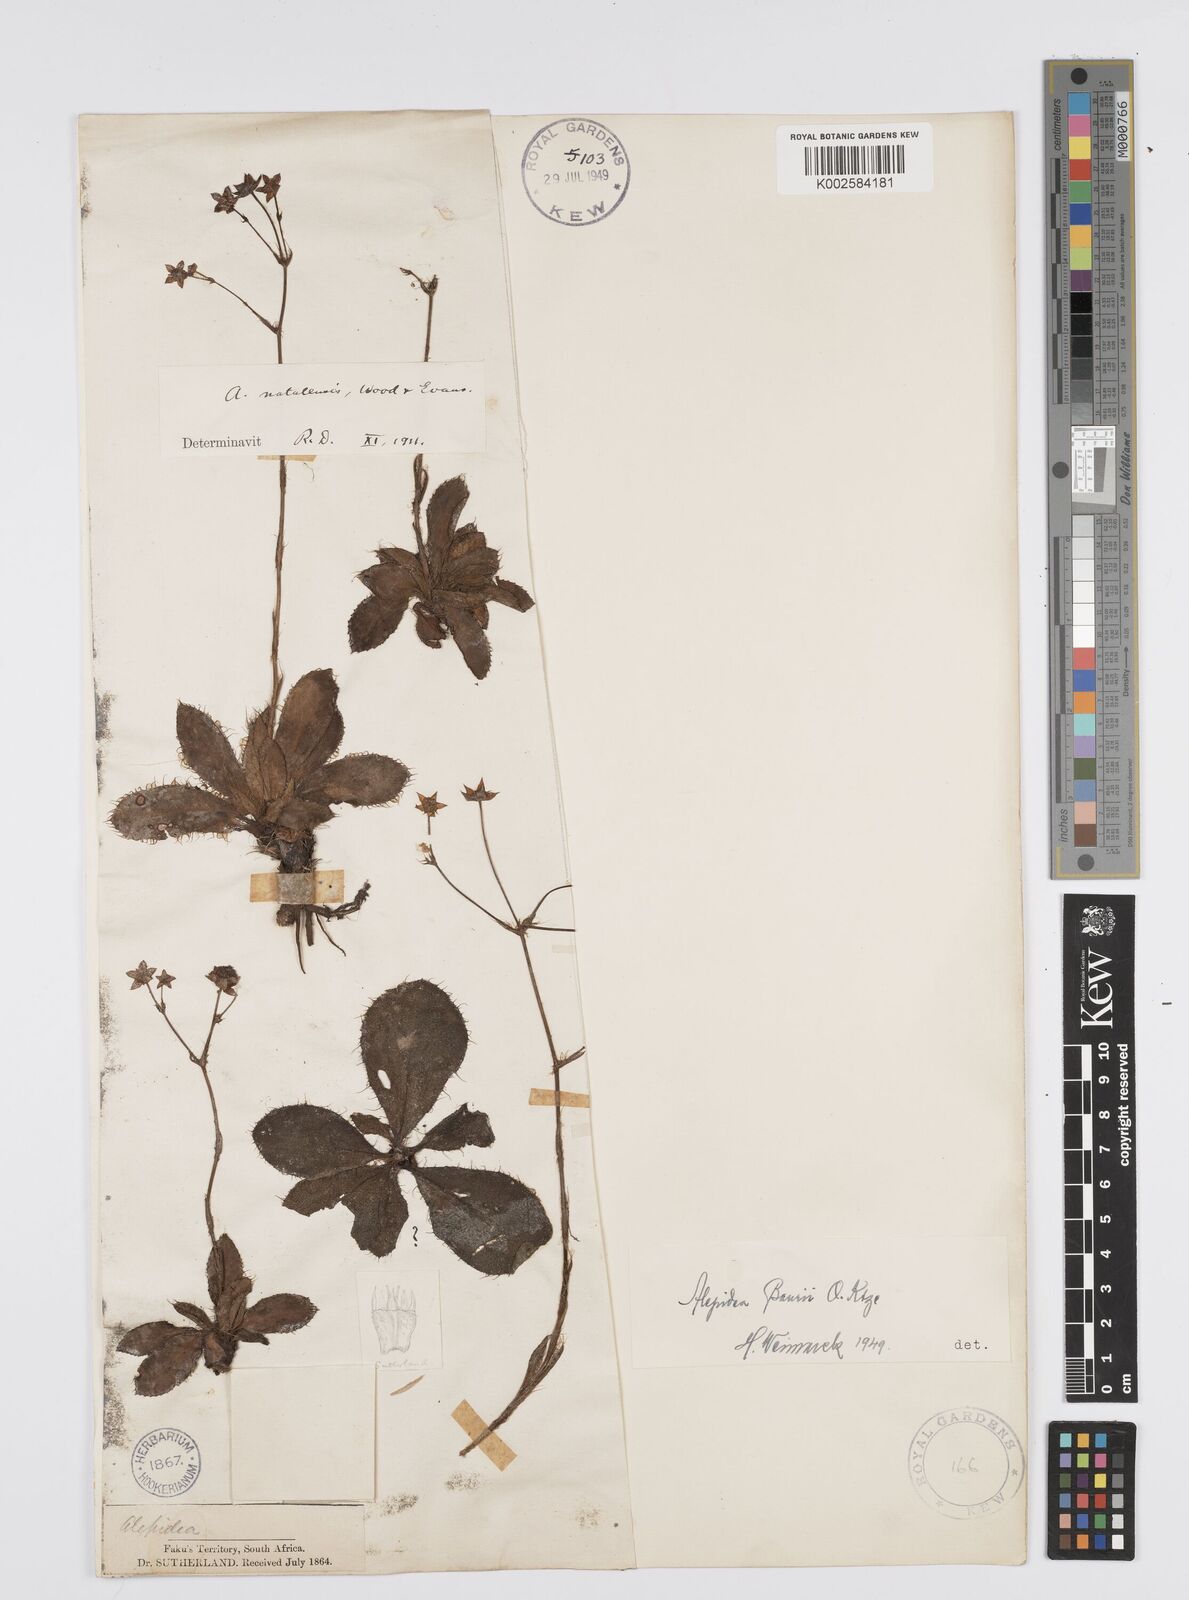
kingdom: Plantae
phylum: Tracheophyta
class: Magnoliopsida
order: Apiales
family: Apiaceae
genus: Alepidea
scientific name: Alepidea natalensis
